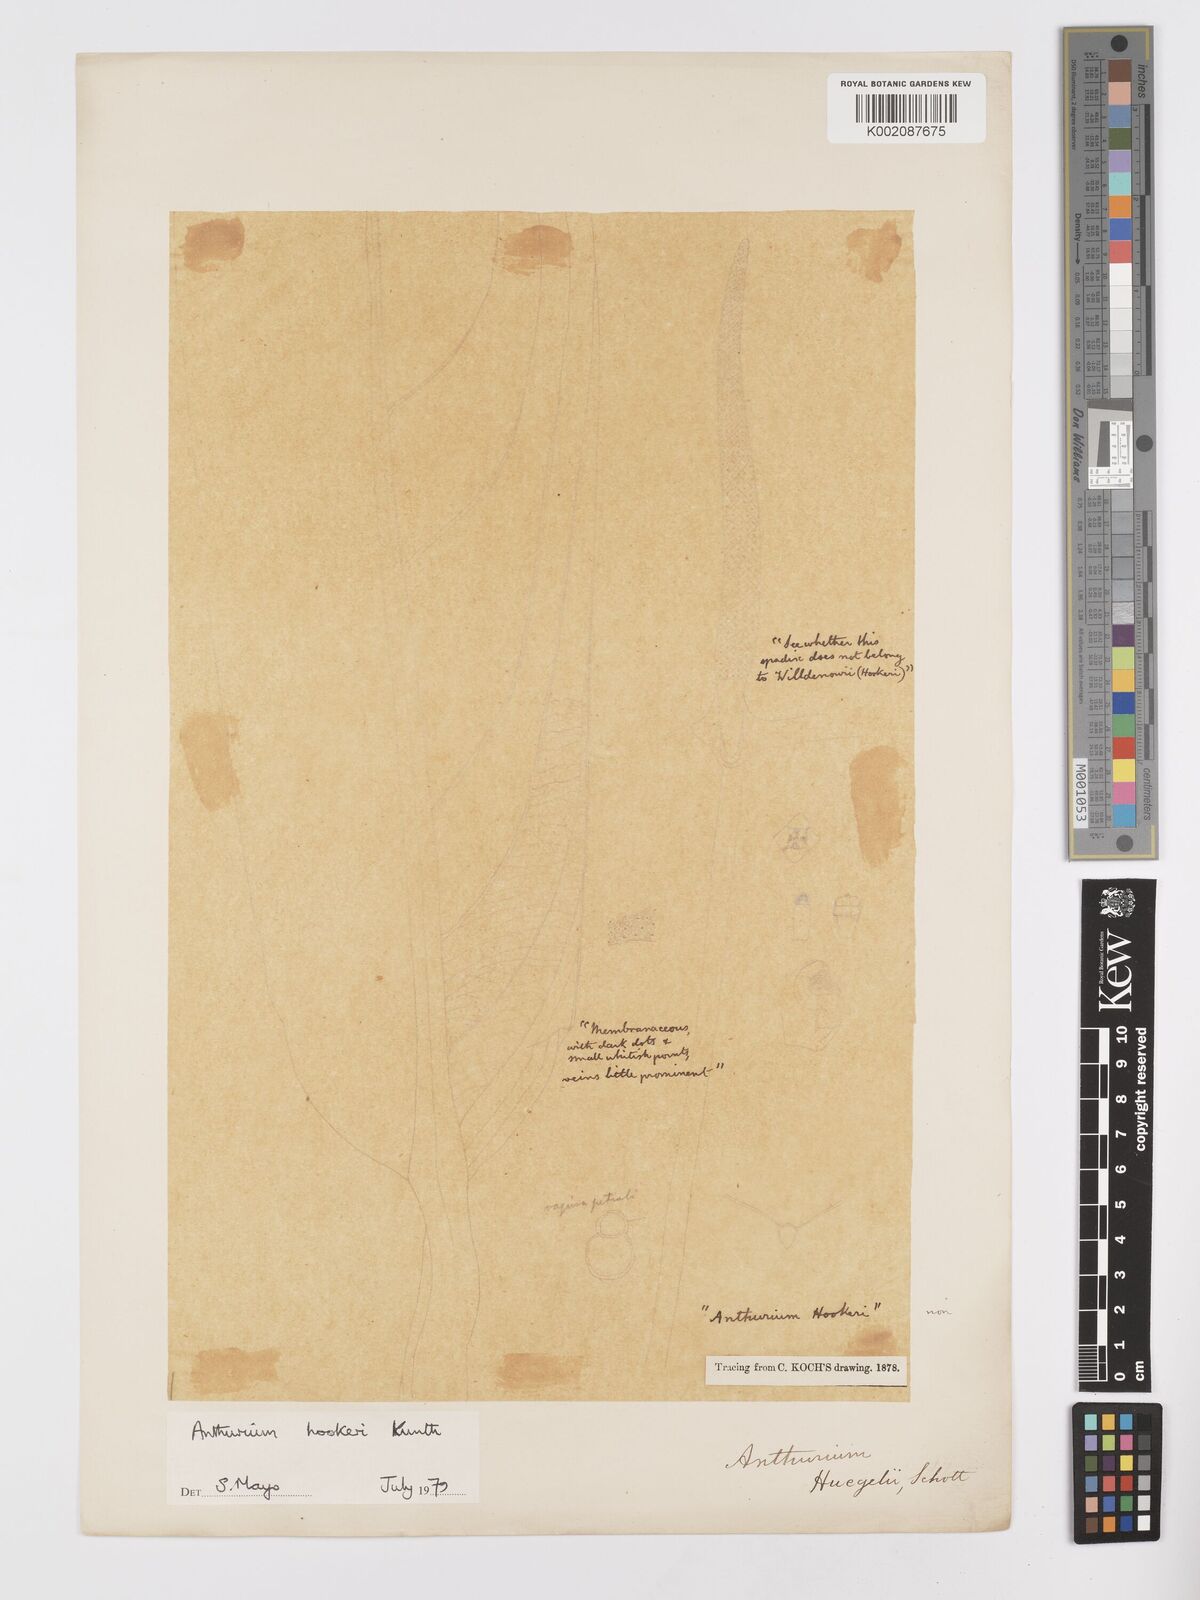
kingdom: Plantae
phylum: Tracheophyta
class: Liliopsida
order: Alismatales
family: Araceae
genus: Anthurium
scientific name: Anthurium hookeri
